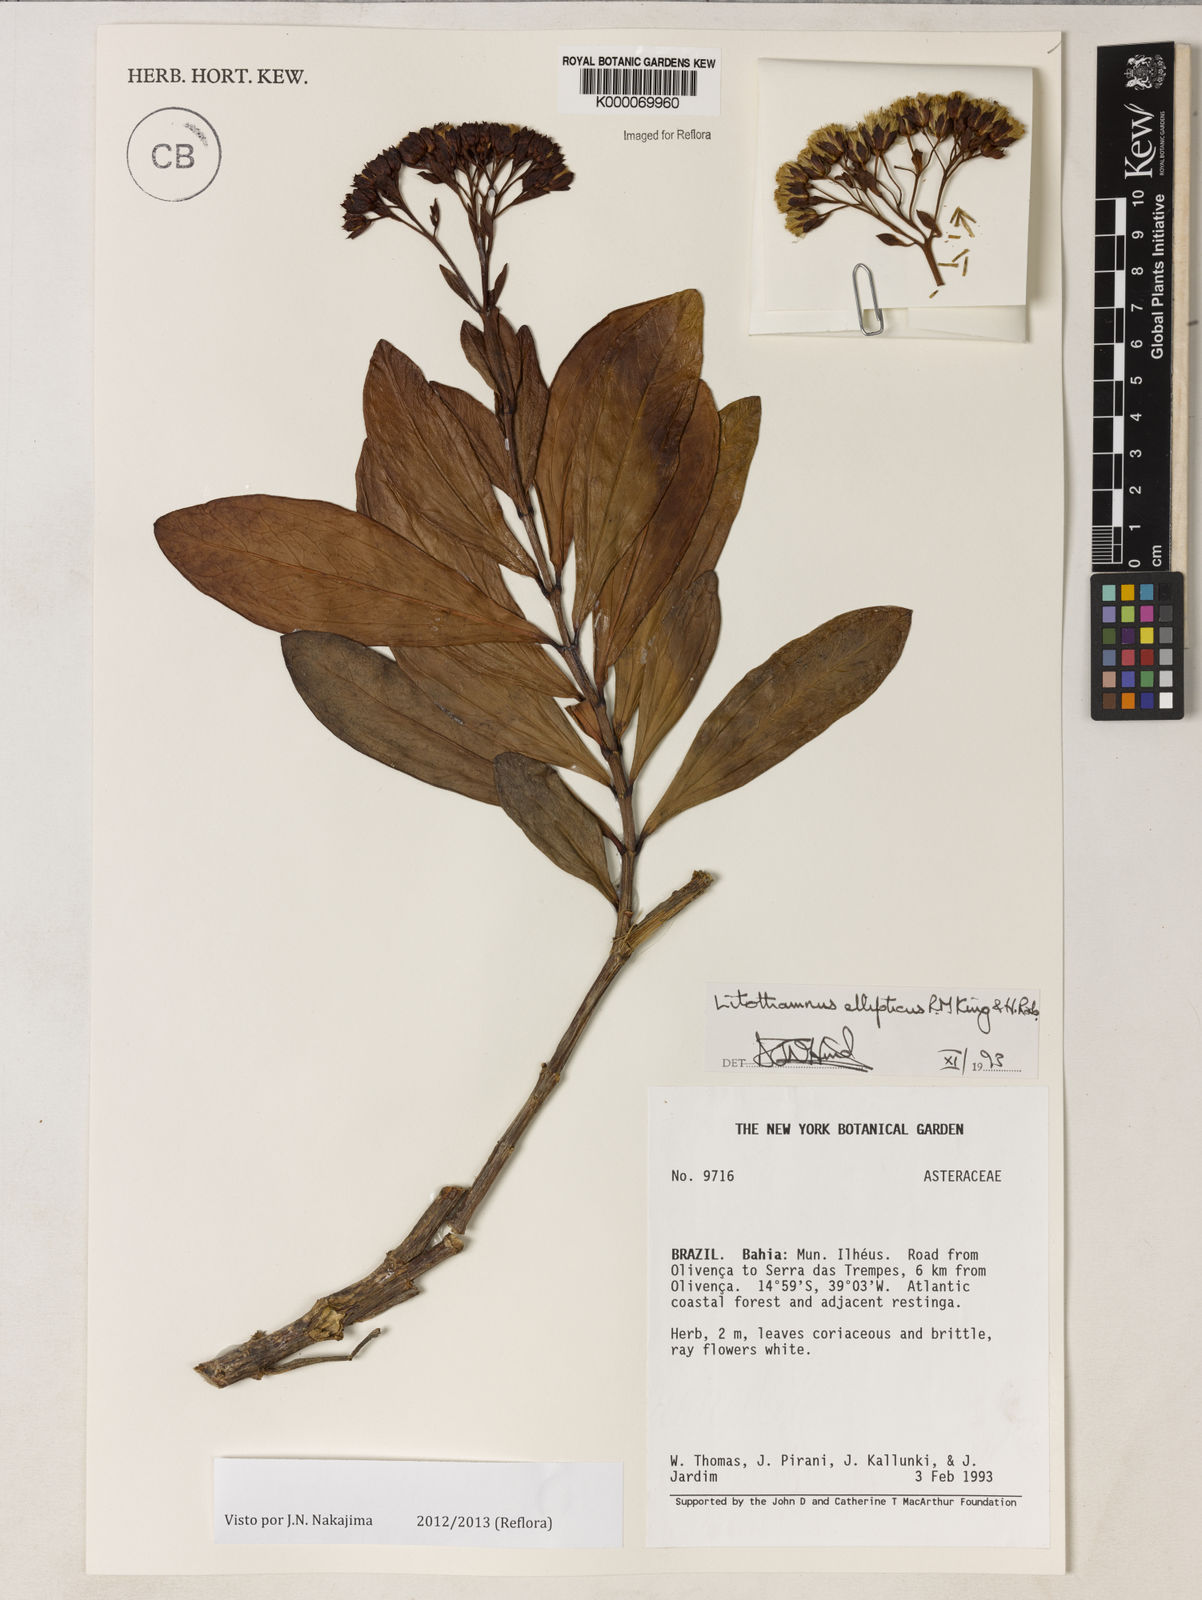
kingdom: Plantae
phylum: Tracheophyta
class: Magnoliopsida
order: Asterales
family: Asteraceae
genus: Litothamnus
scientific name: Litothamnus ellipticus
